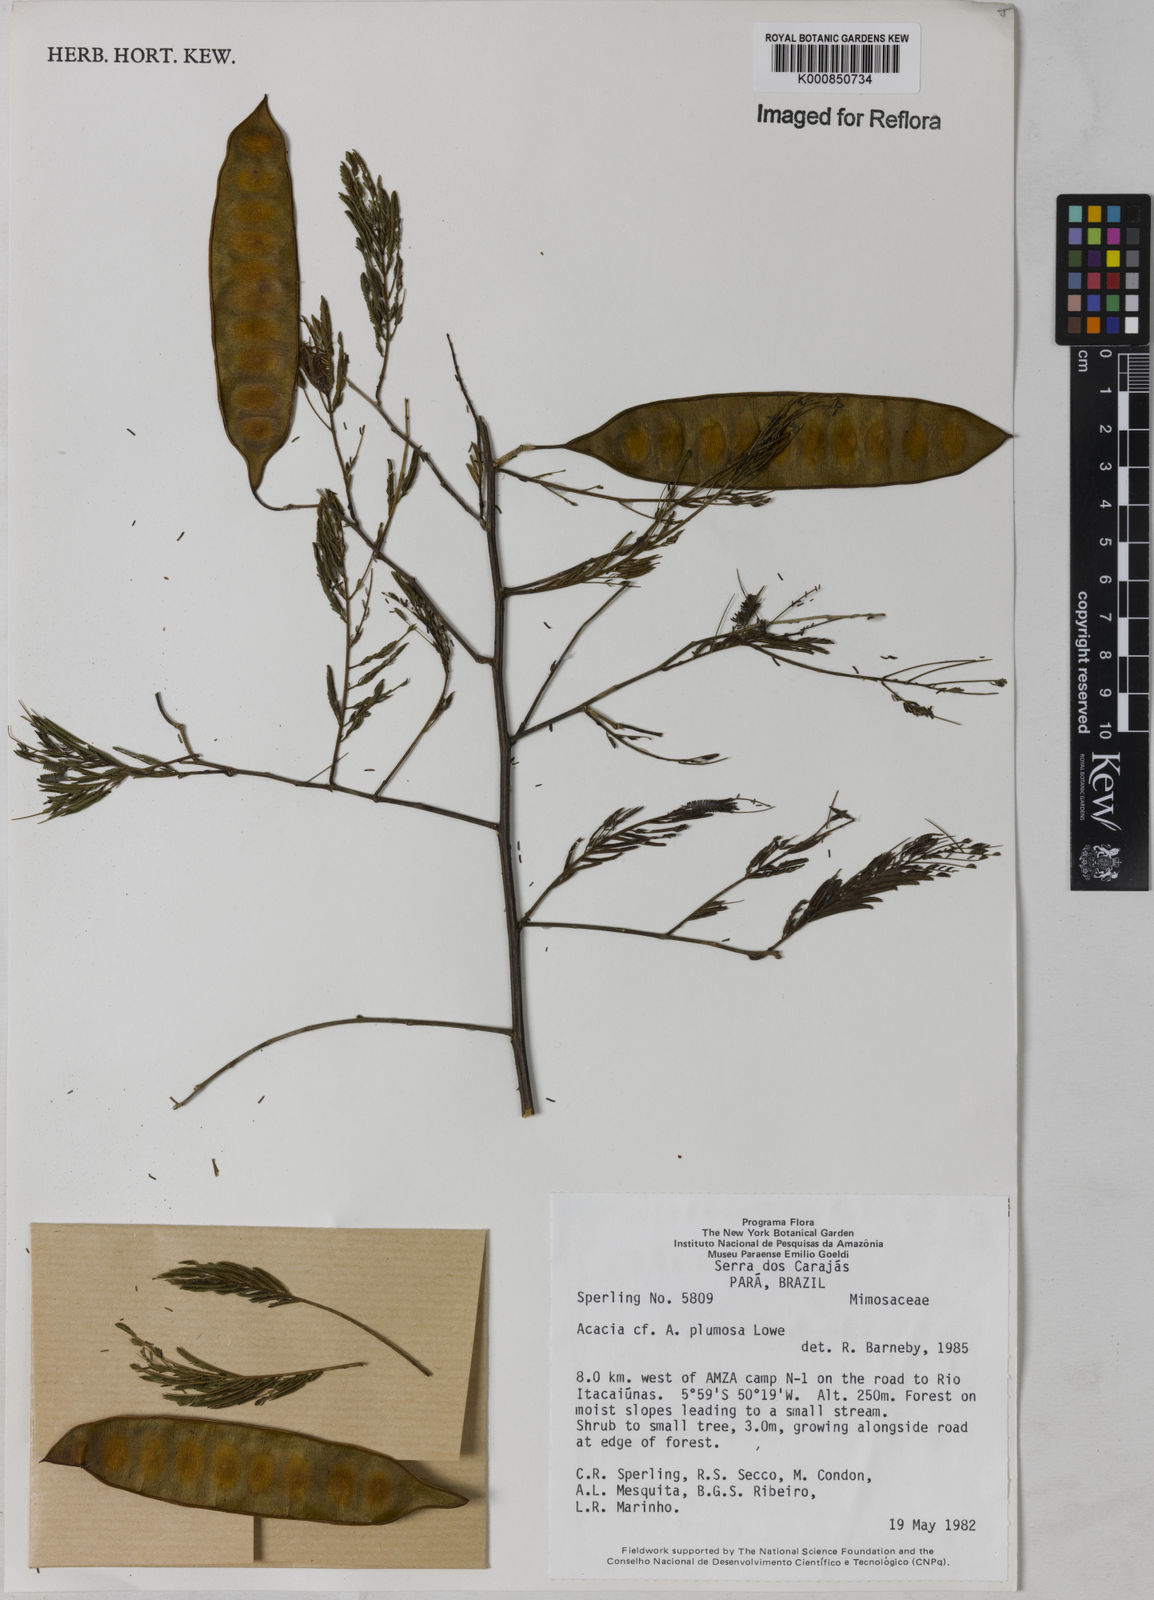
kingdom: Plantae
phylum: Tracheophyta
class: Magnoliopsida
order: Fabales
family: Fabaceae
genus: Senegalia
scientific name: Senegalia lowei
